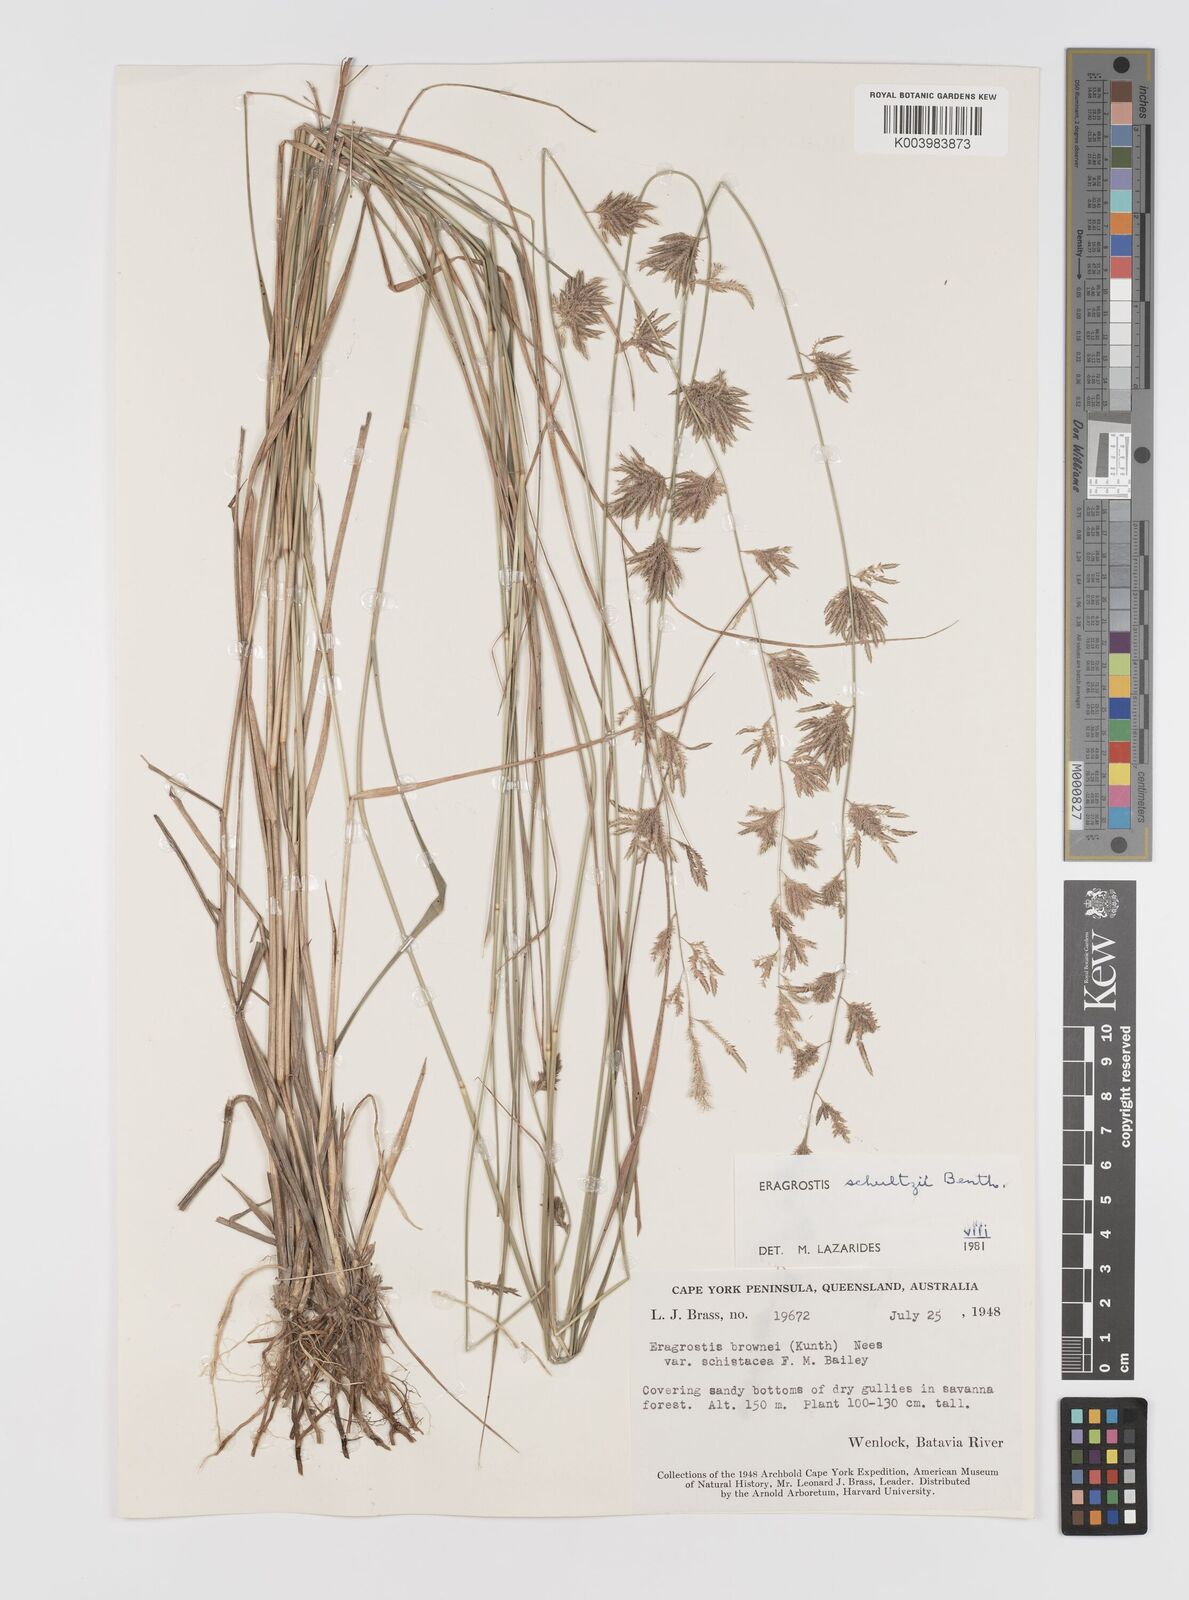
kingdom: Plantae
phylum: Tracheophyta
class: Liliopsida
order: Poales
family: Poaceae
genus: Eragrostis
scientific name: Eragrostis schultzii
